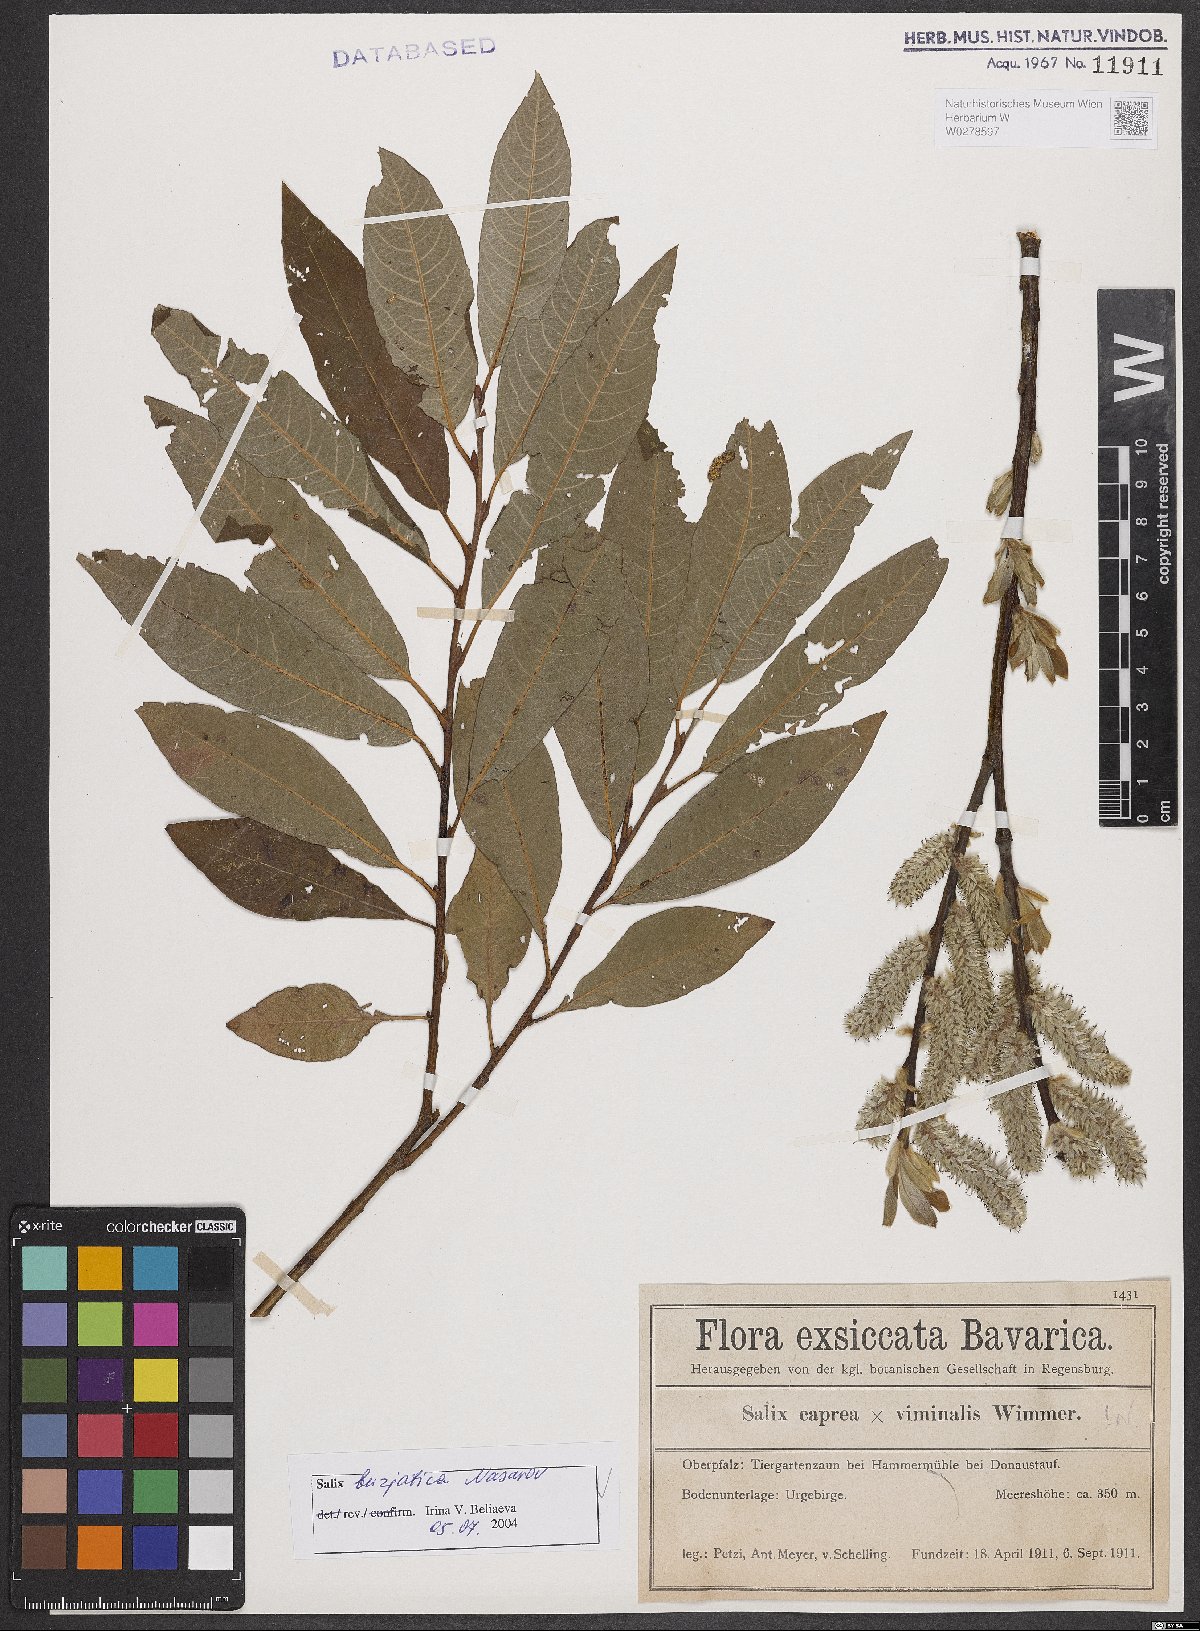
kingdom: Plantae
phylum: Tracheophyta
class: Magnoliopsida
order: Malpighiales
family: Salicaceae
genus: Salix
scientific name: Salix gmelinii
